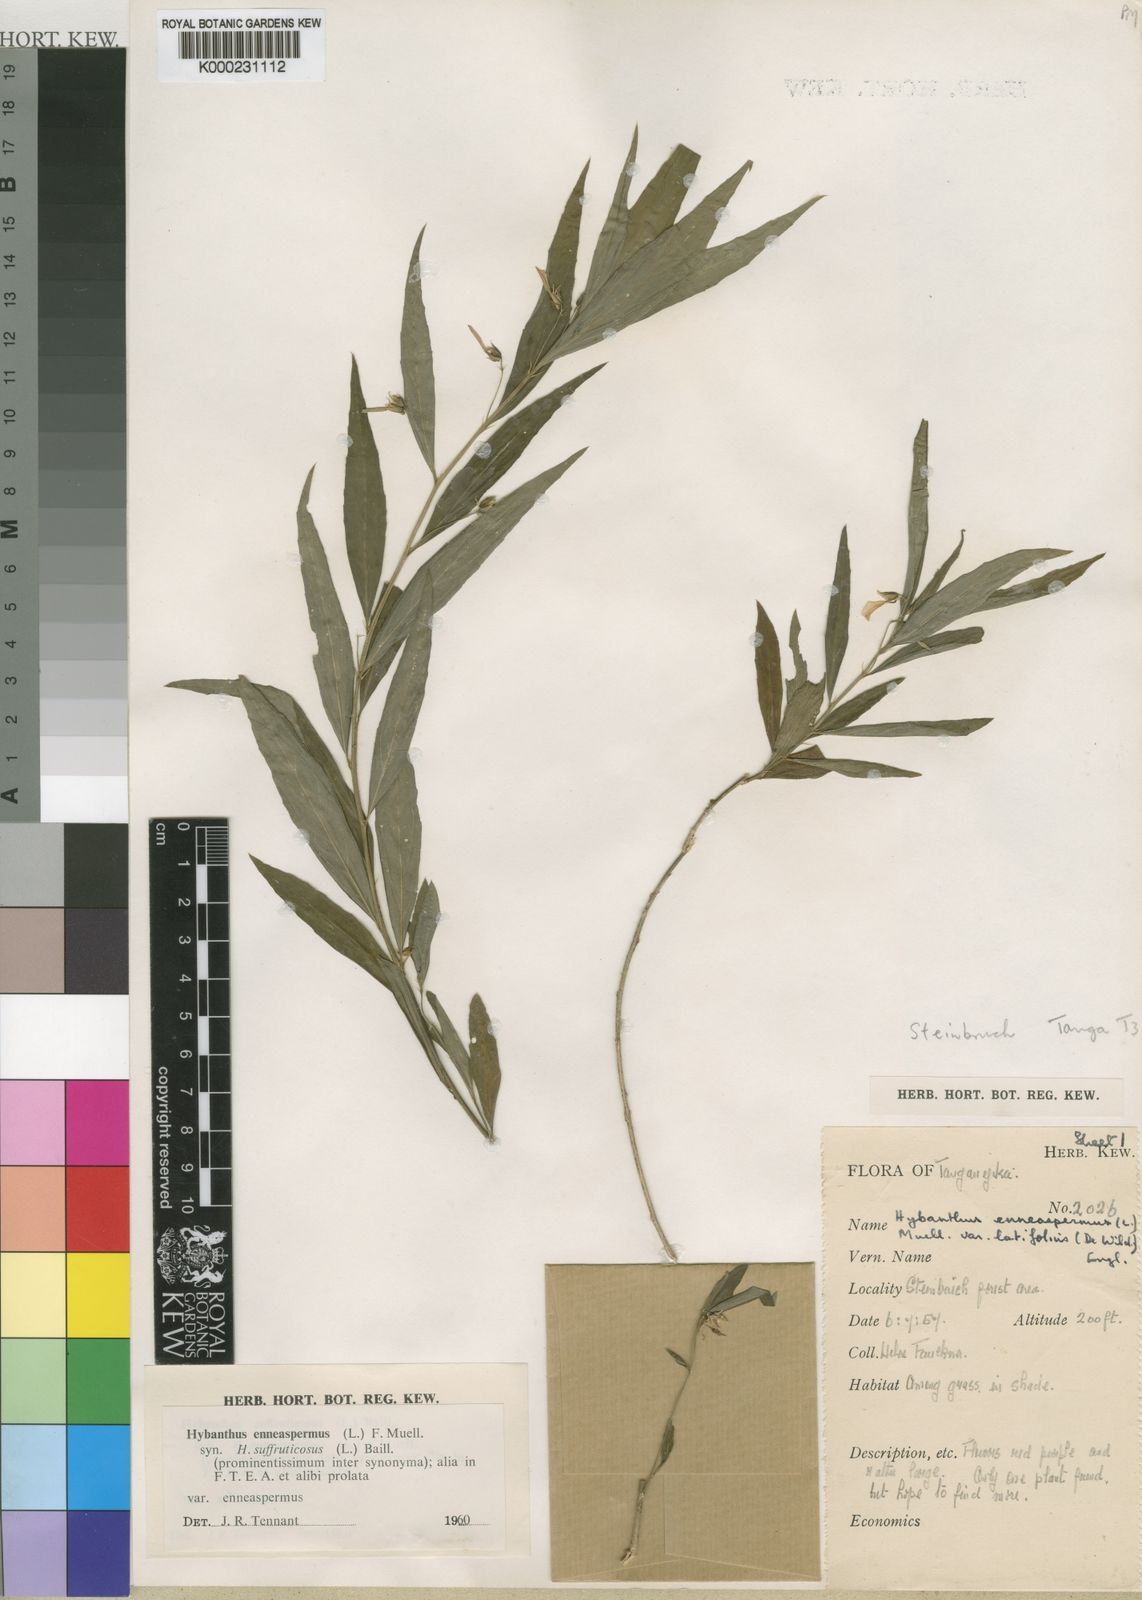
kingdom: Plantae
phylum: Tracheophyta
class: Magnoliopsida
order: Malpighiales
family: Violaceae
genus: Pigea
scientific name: Pigea enneasperma
